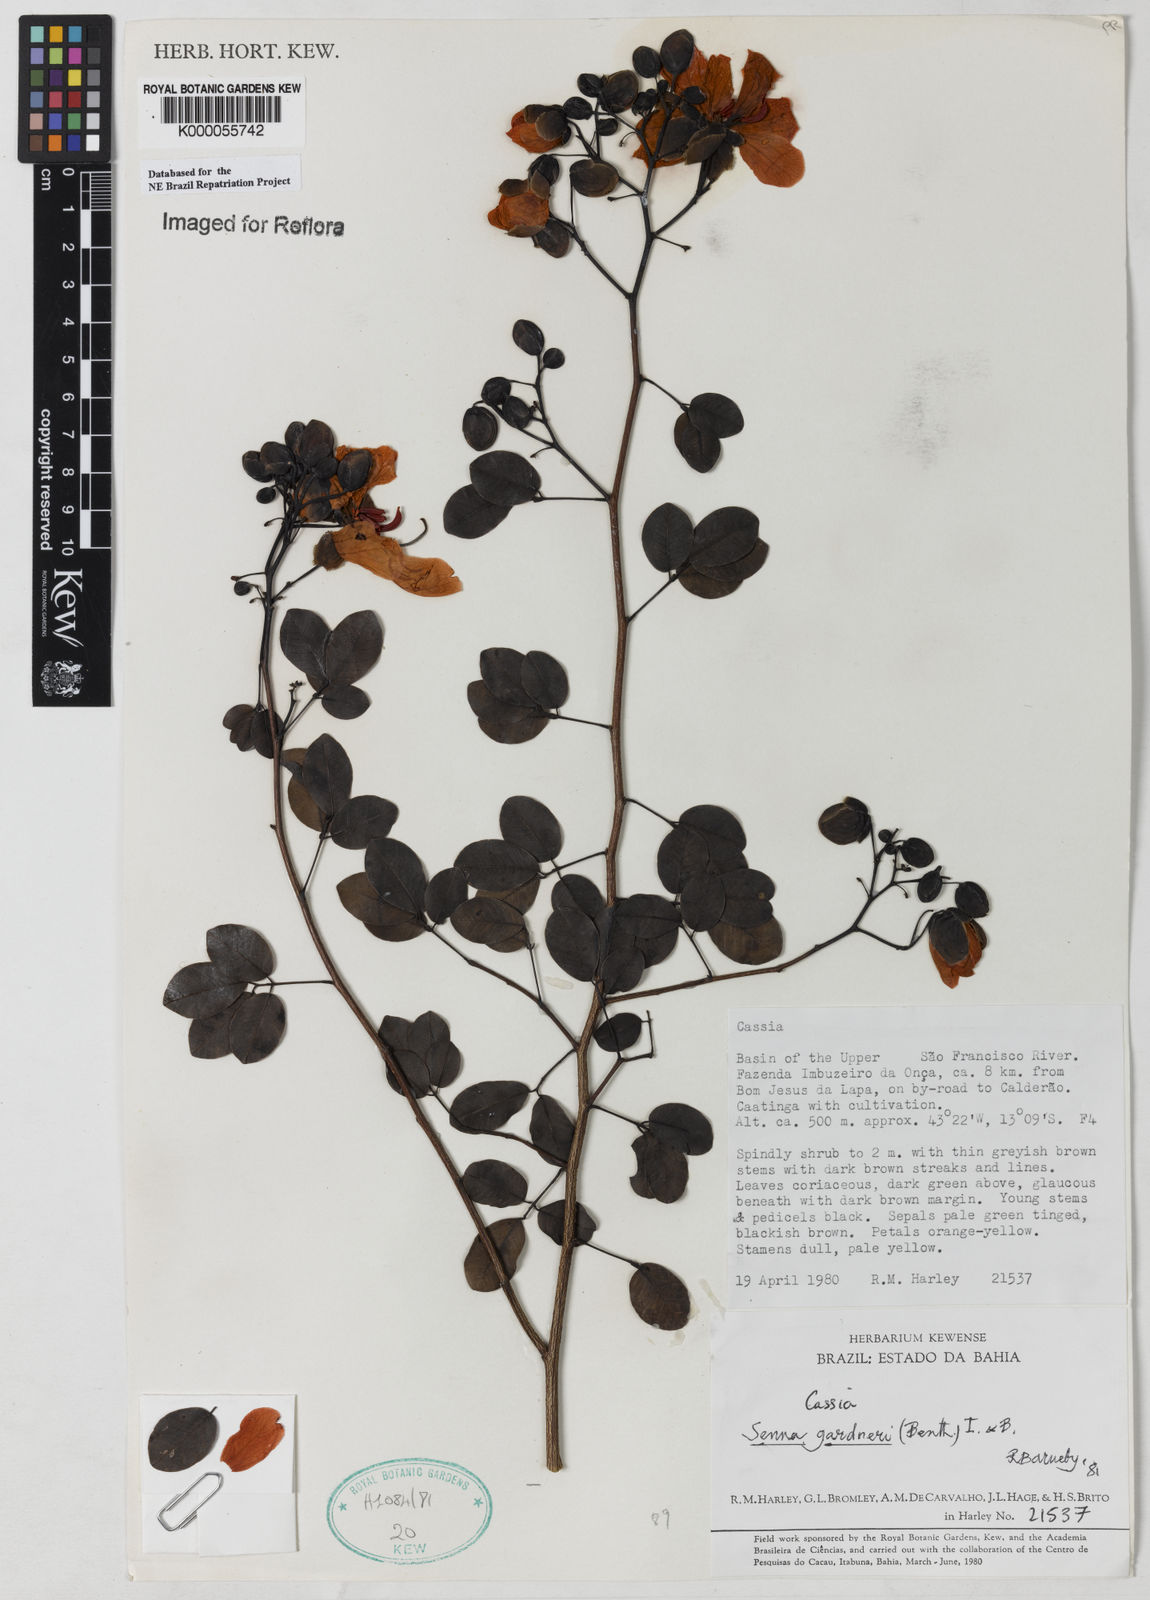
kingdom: Plantae
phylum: Tracheophyta
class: Magnoliopsida
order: Fabales
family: Fabaceae
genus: Senna
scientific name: Senna gardneri
